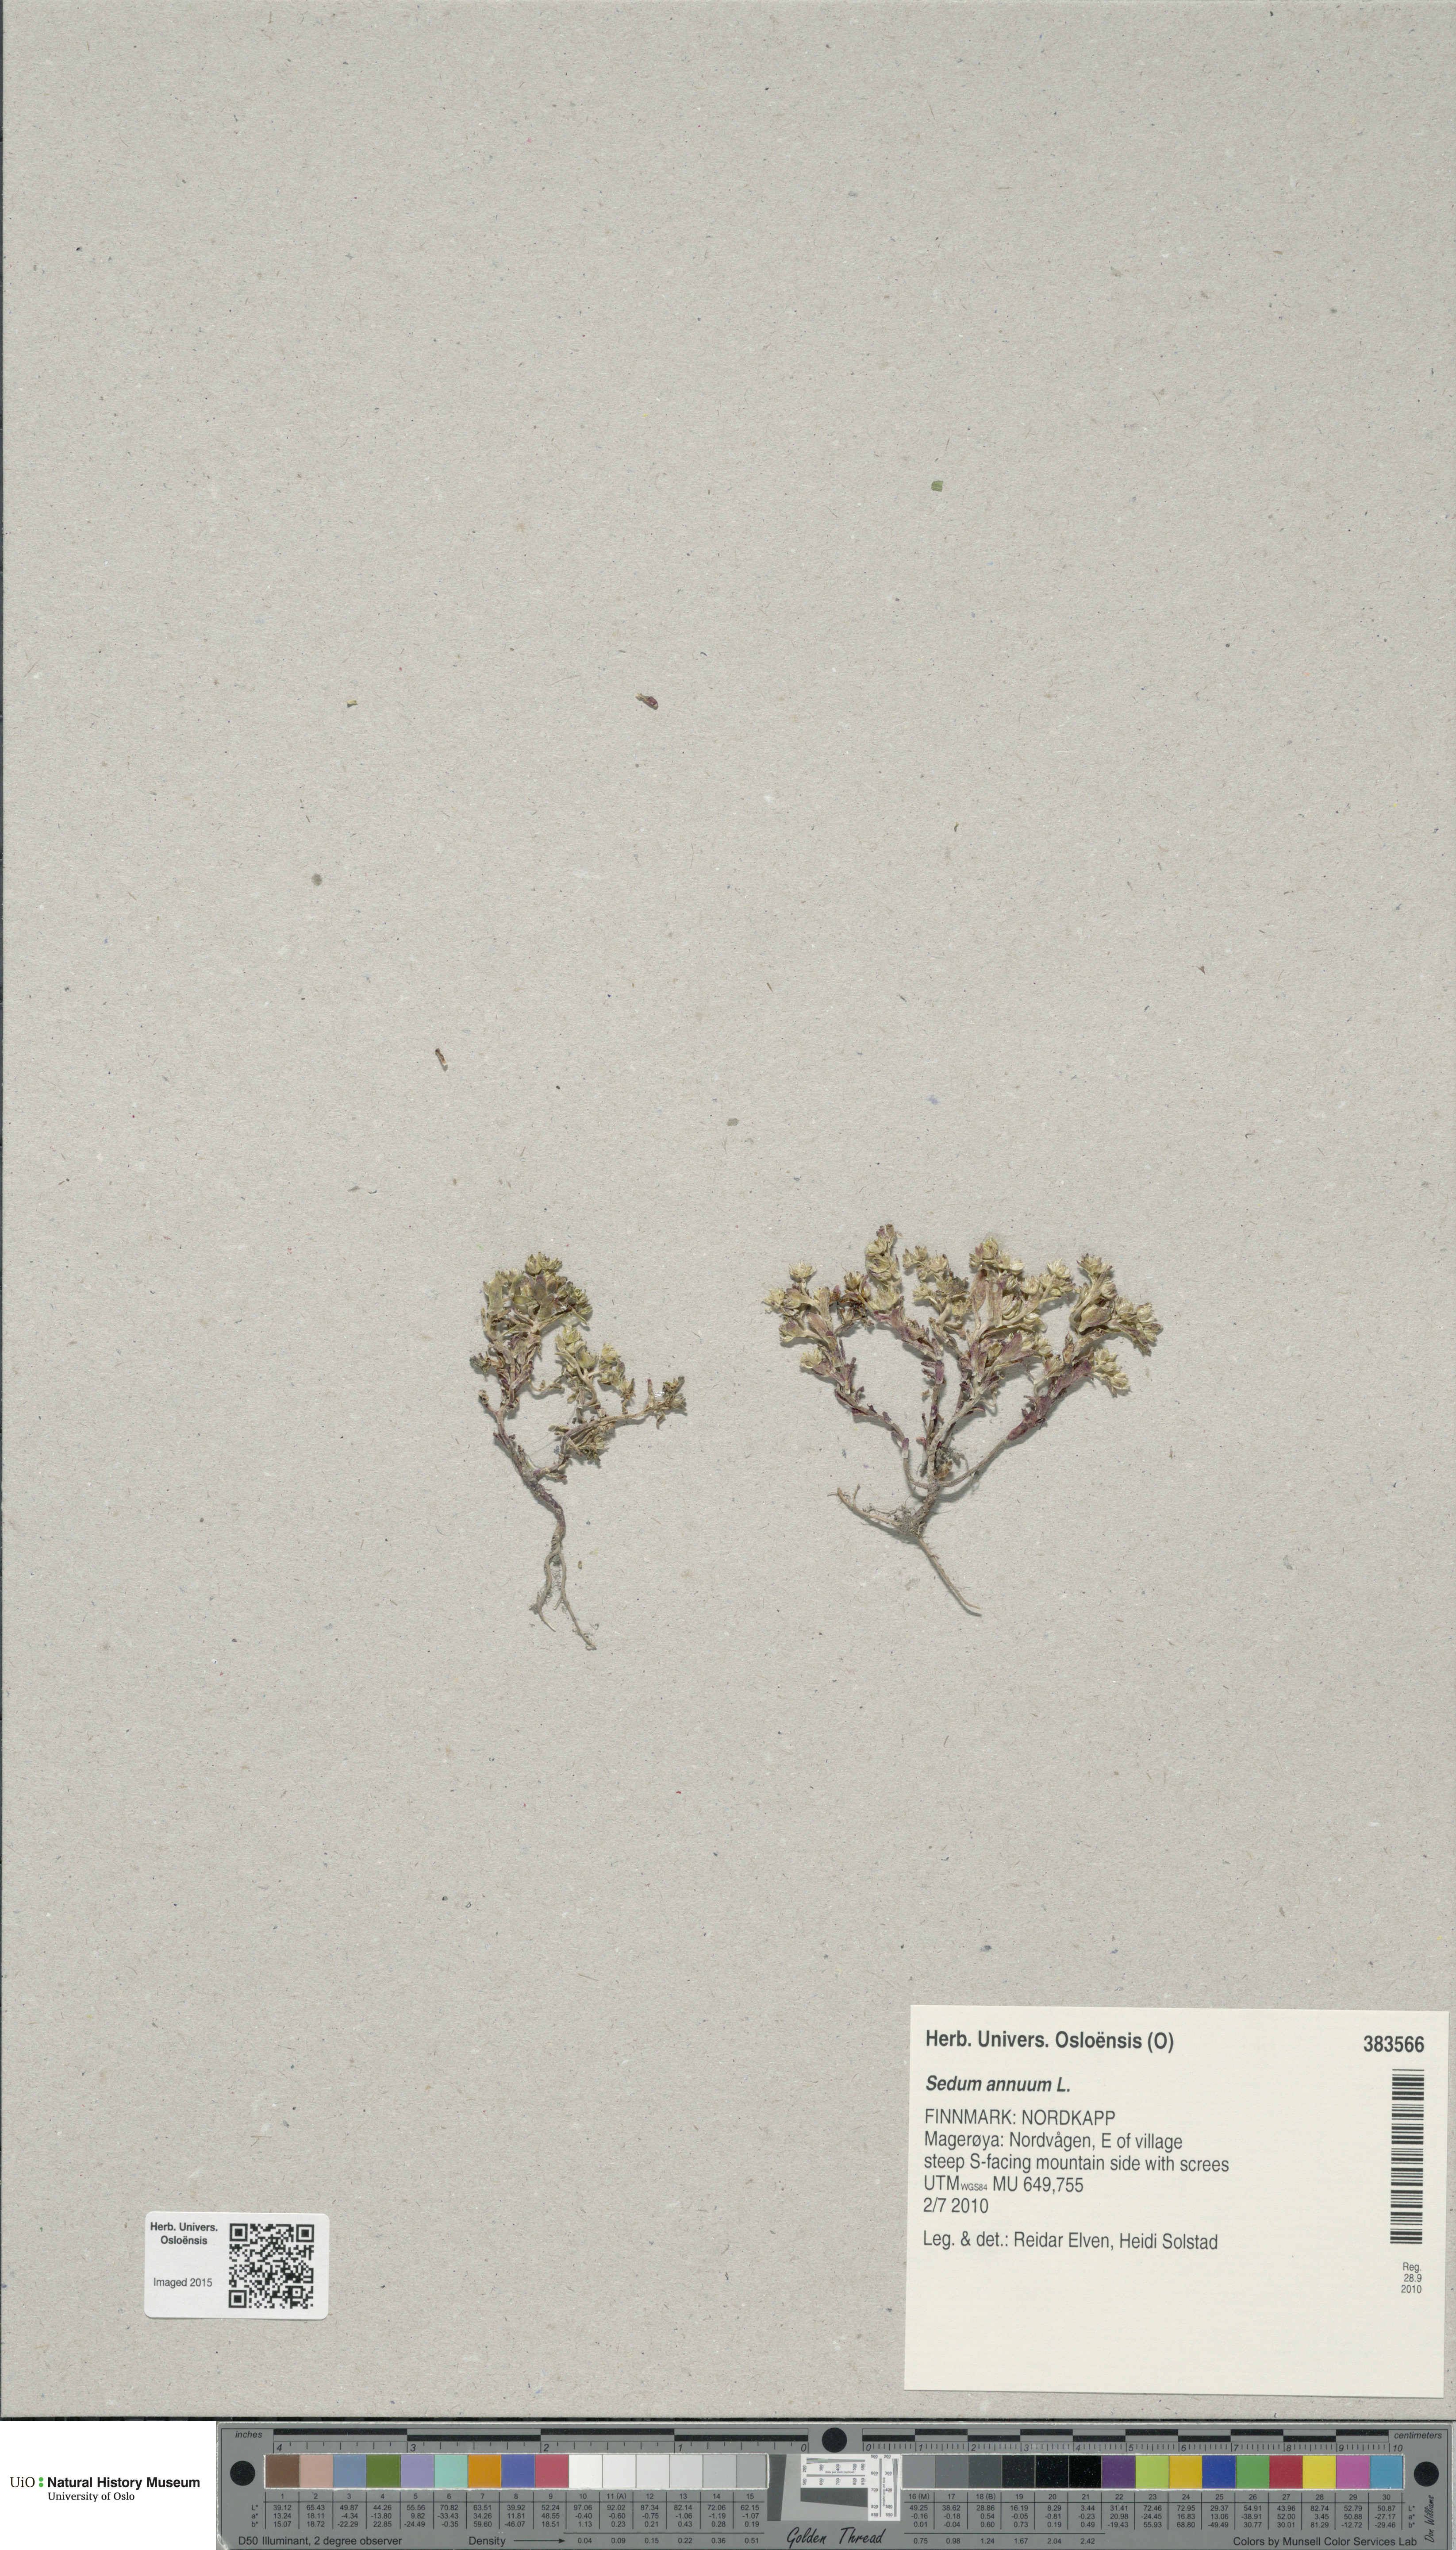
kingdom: Plantae
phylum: Tracheophyta
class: Magnoliopsida
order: Saxifragales
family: Crassulaceae
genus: Sedum
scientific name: Sedum annuum
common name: Annual stonecrop
